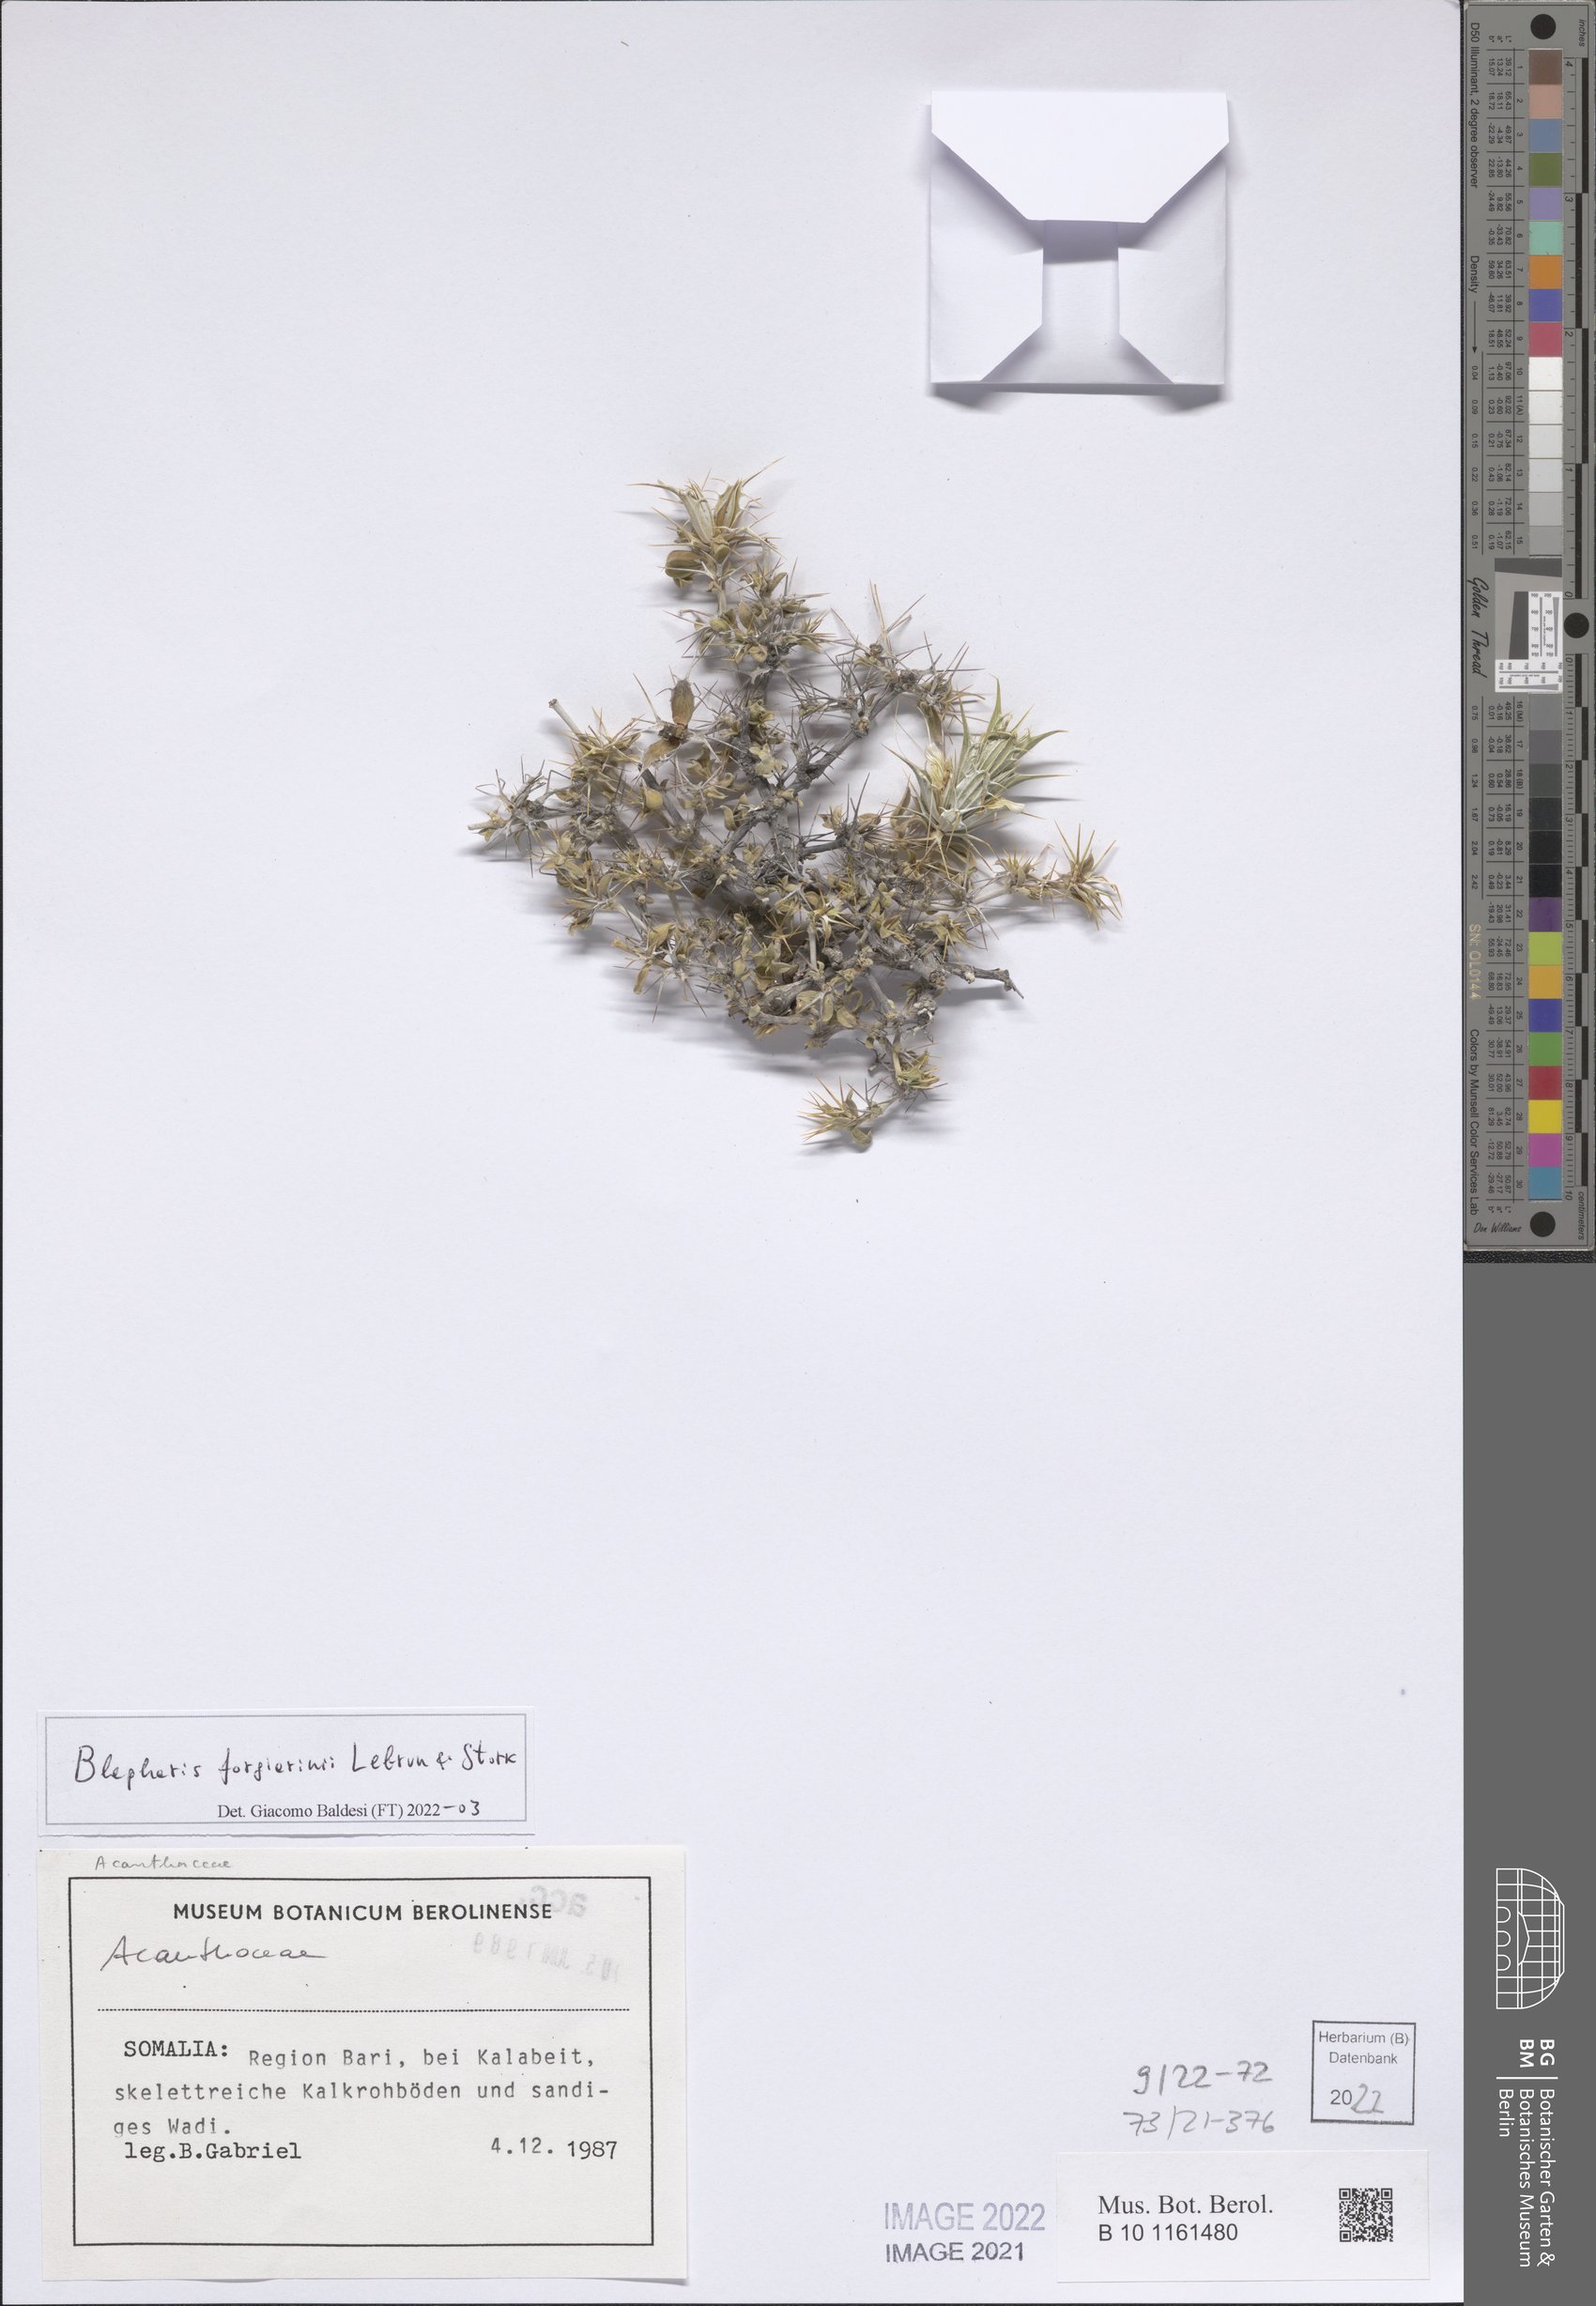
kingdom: Plantae
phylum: Tracheophyta
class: Magnoliopsida
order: Lamiales
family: Acanthaceae
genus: Blepharis
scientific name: Blepharis forgiarinii
